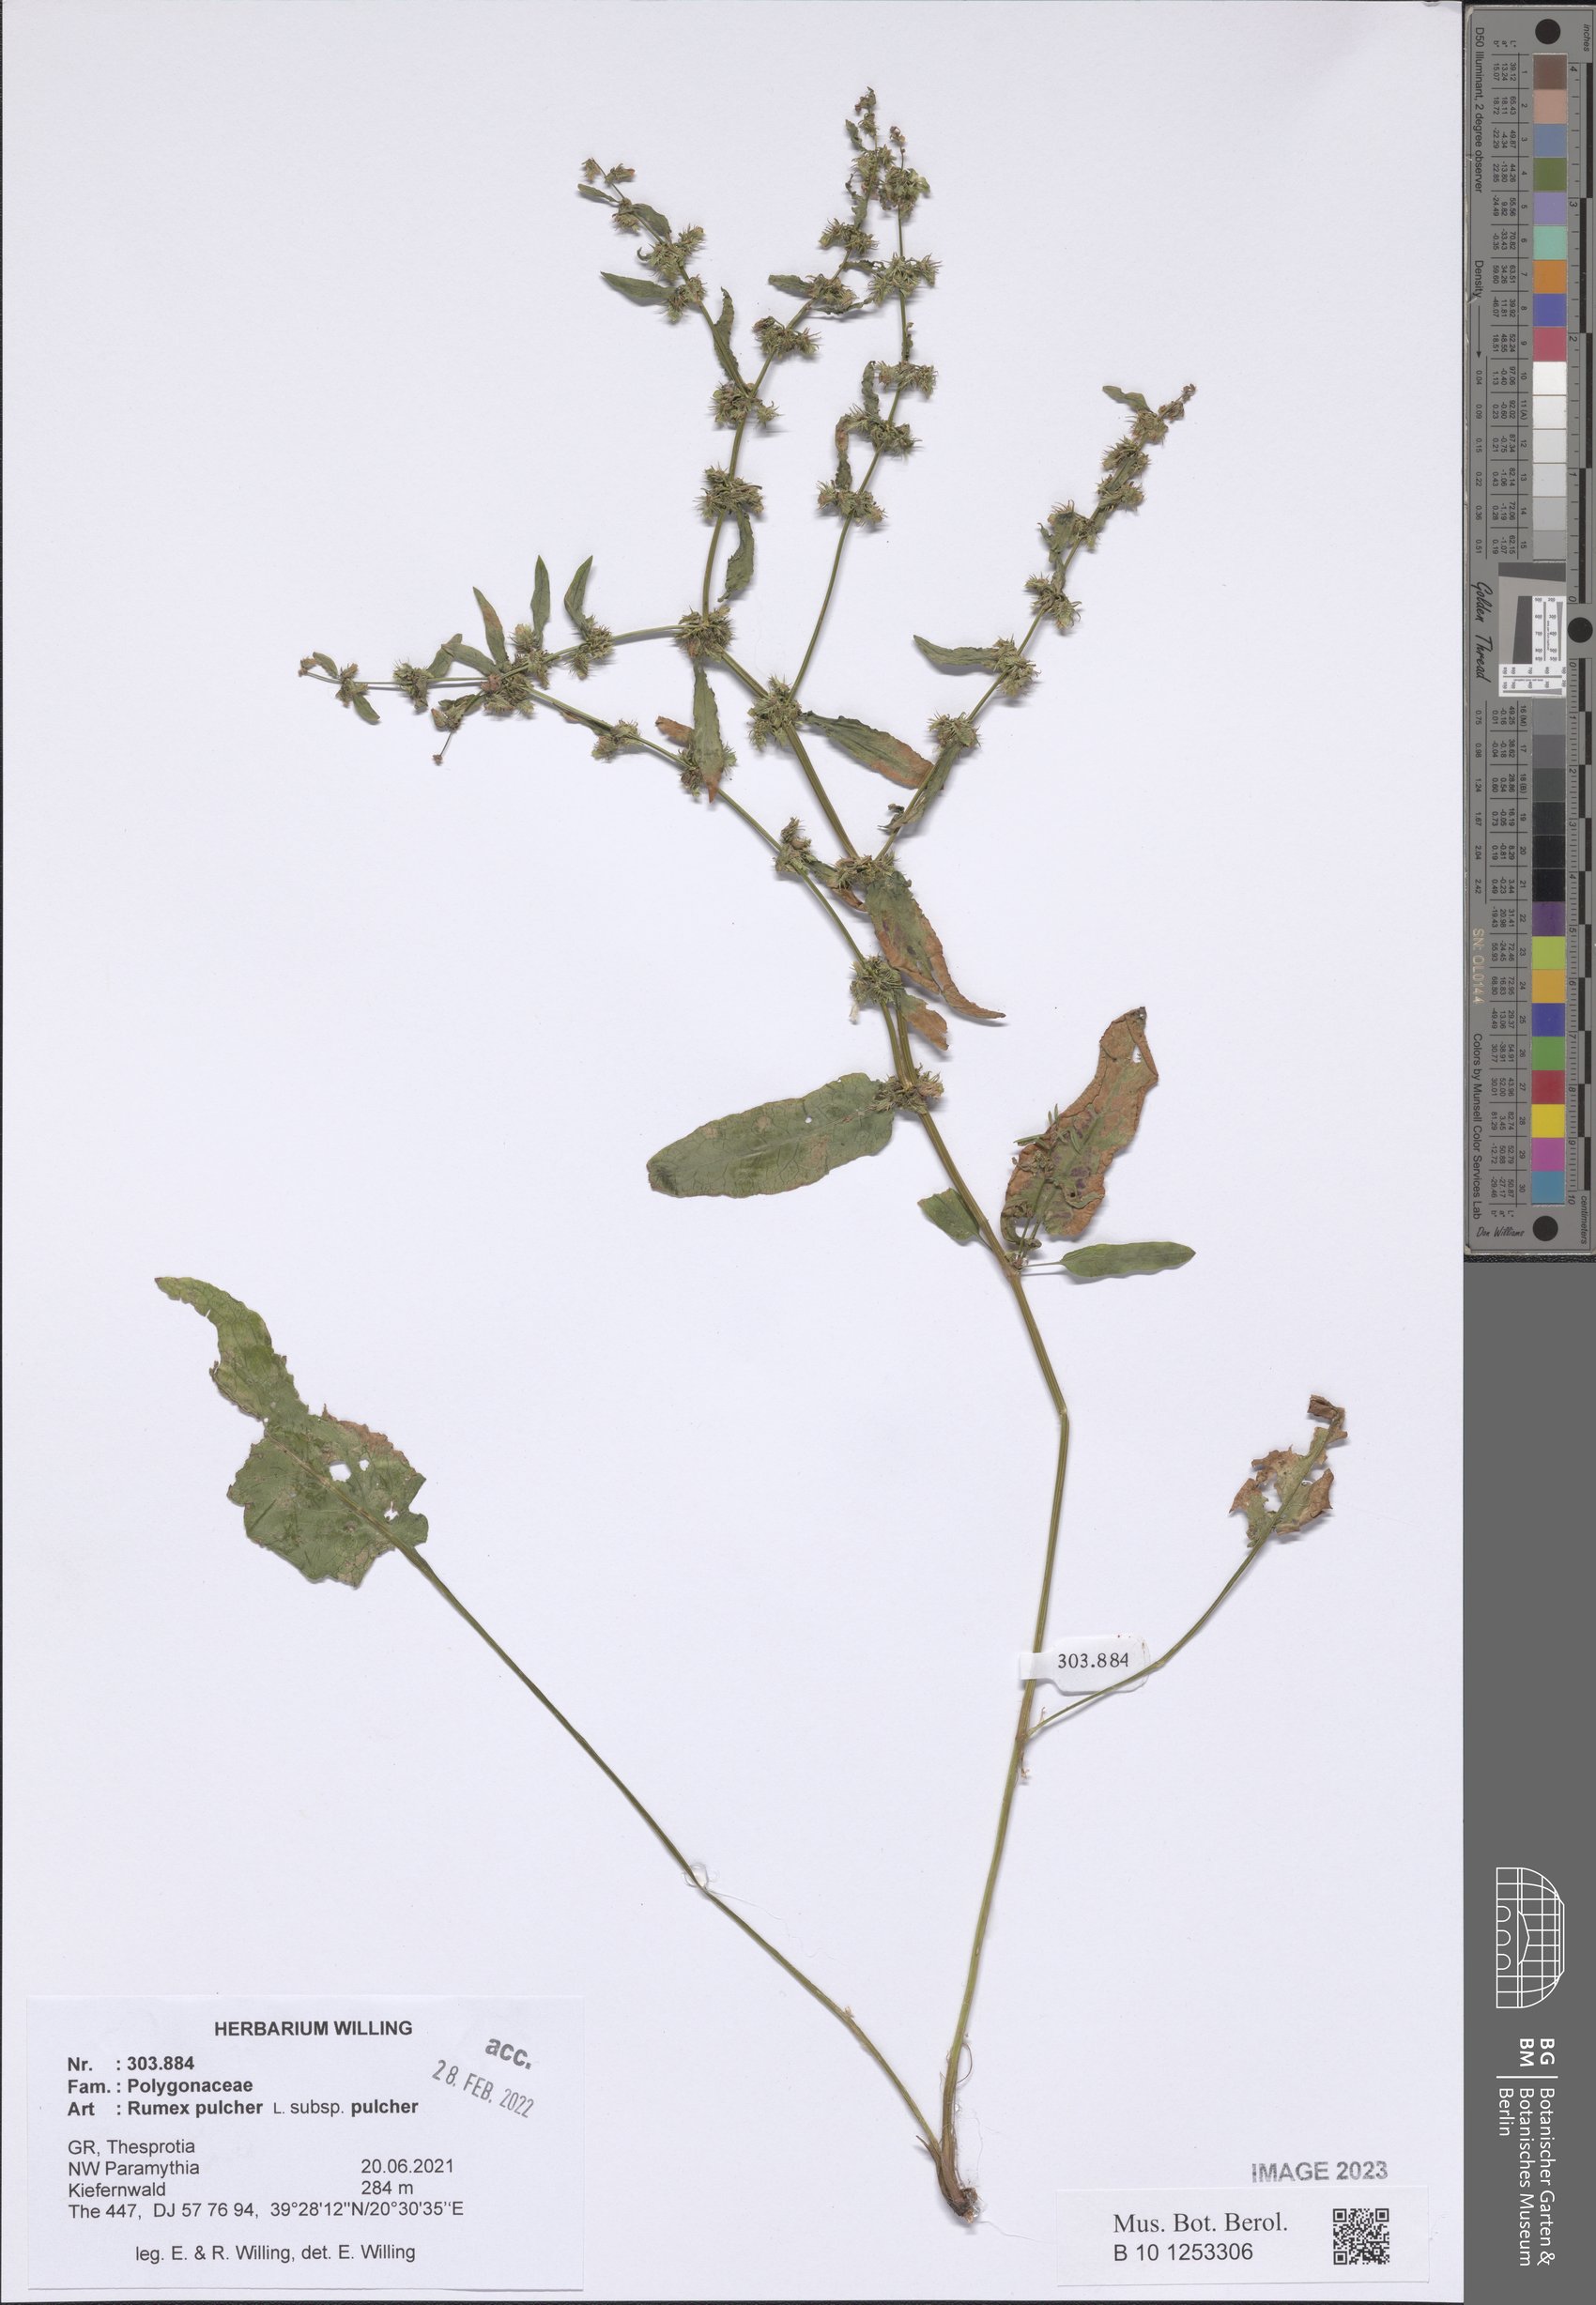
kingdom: Plantae
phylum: Tracheophyta
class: Magnoliopsida
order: Caryophyllales
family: Polygonaceae
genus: Rumex
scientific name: Rumex pulcher
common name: Fiddle dock
